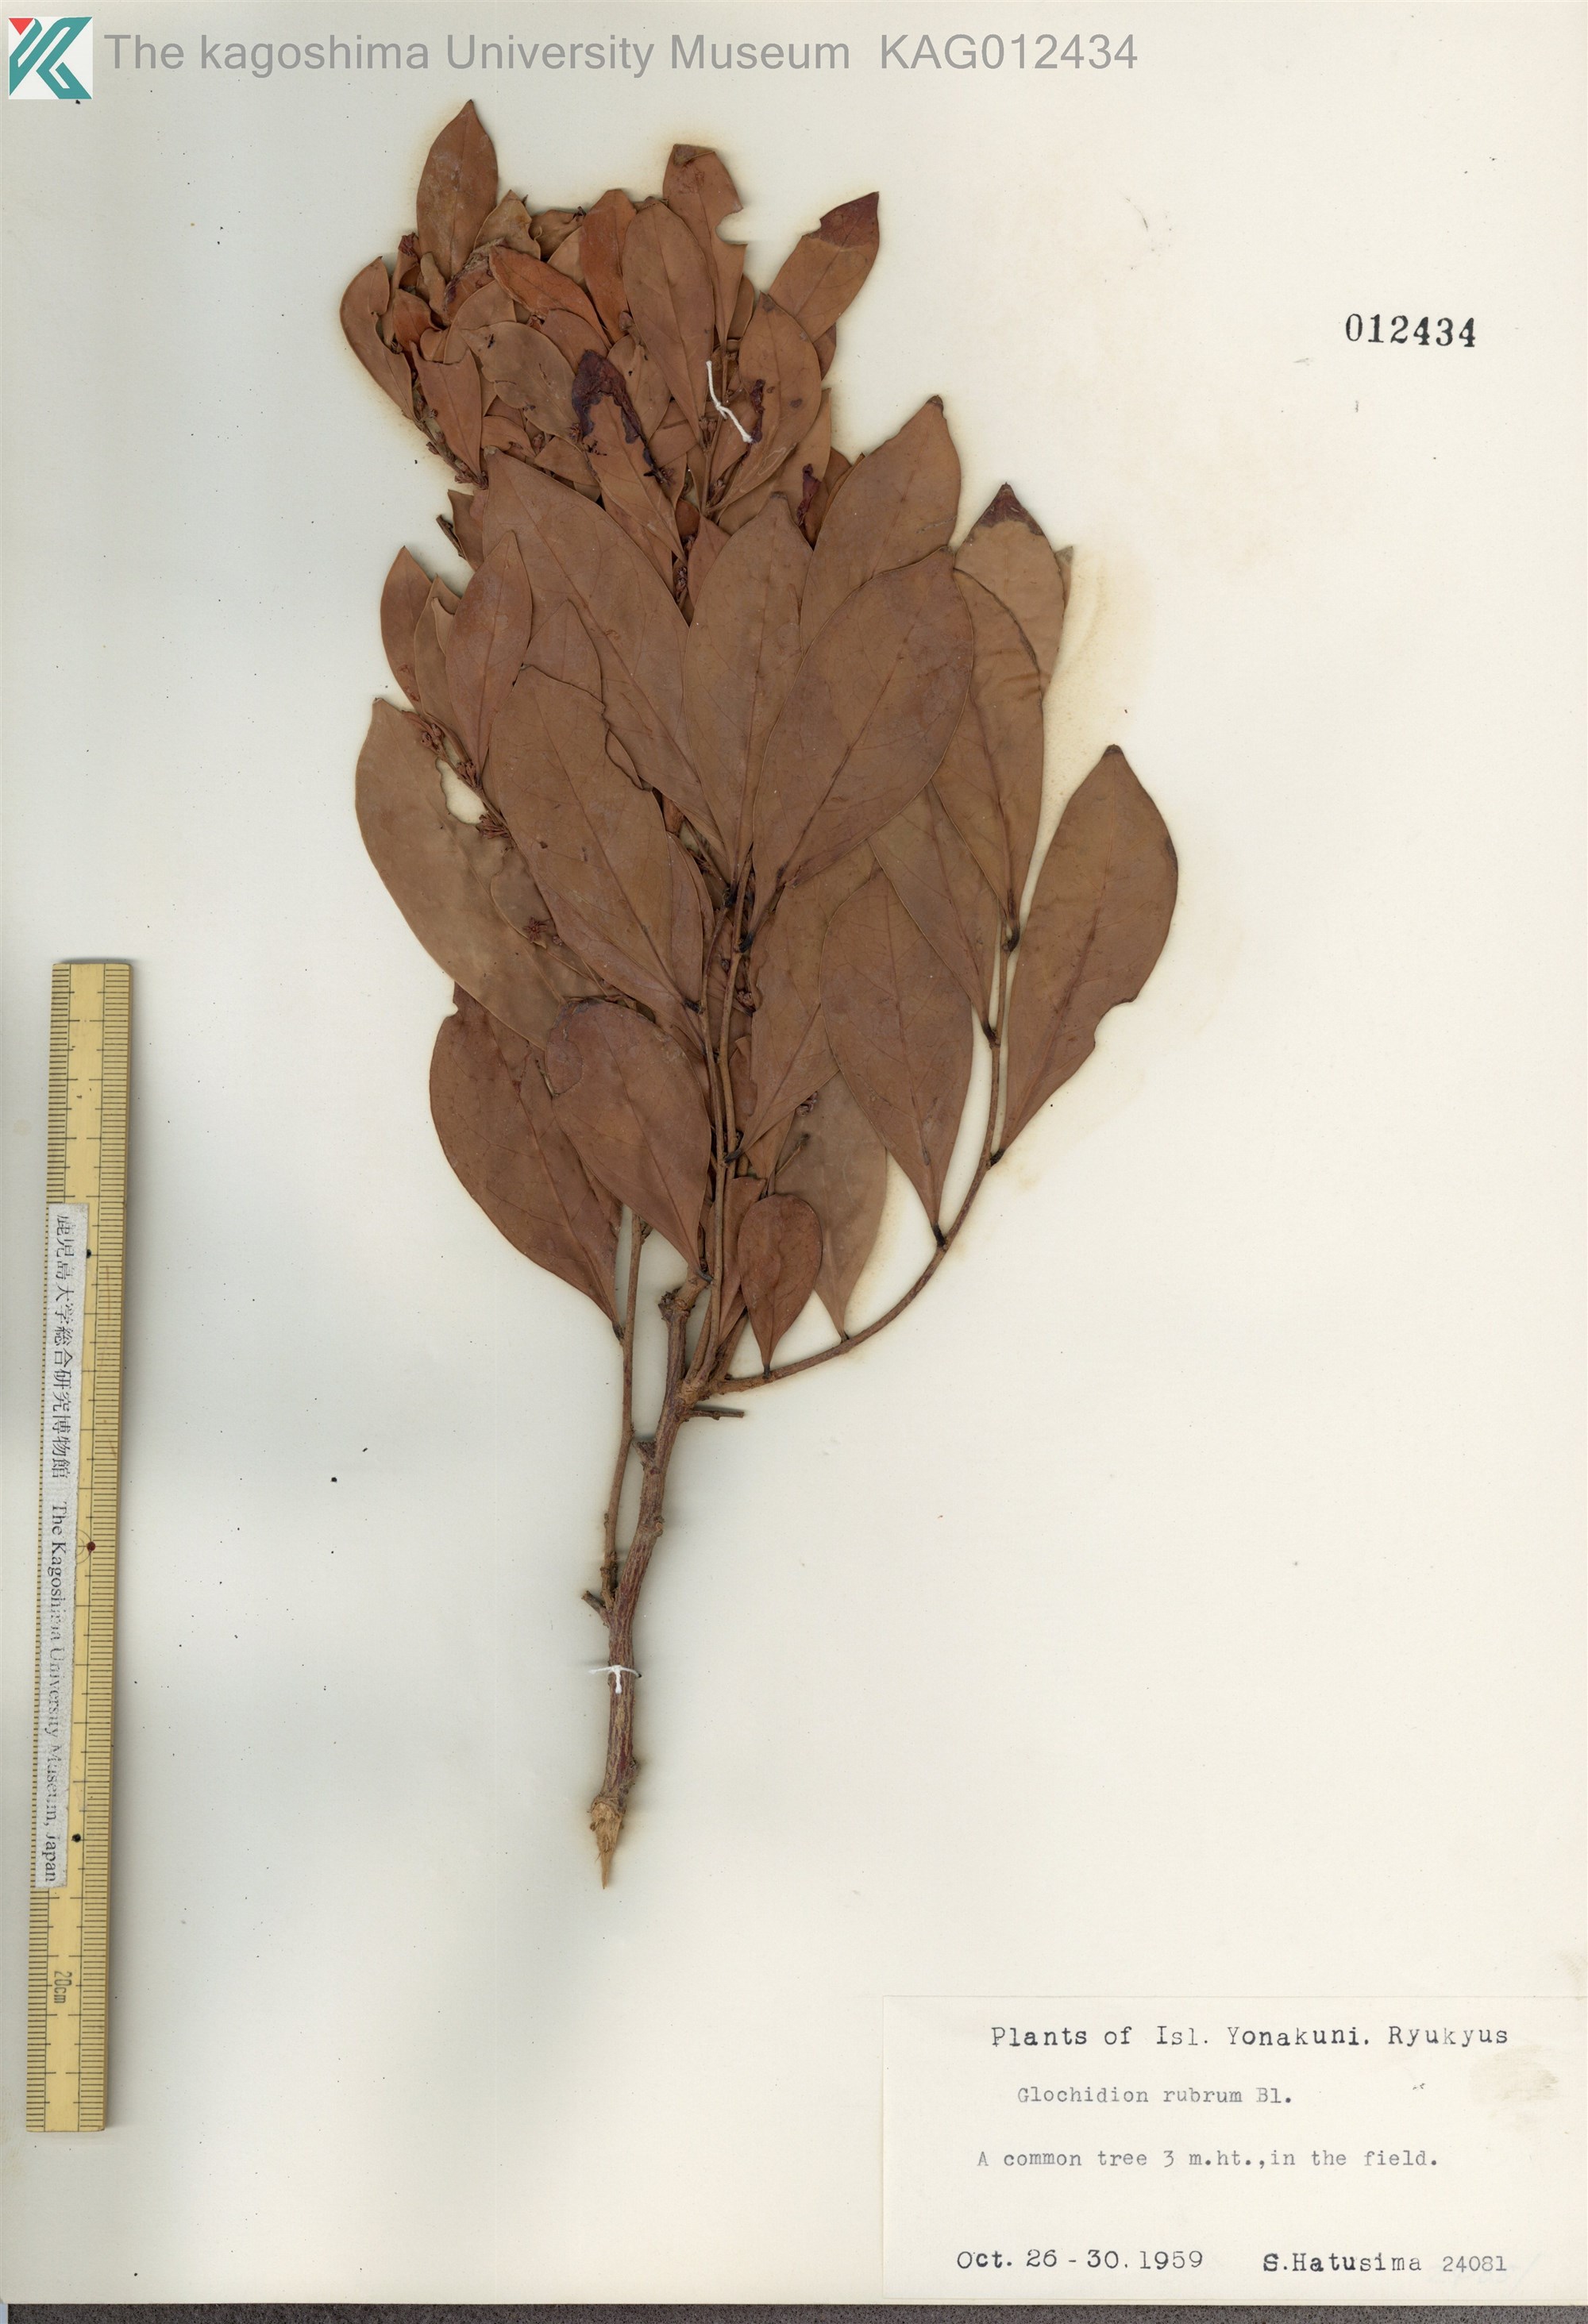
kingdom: Plantae
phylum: Tracheophyta
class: Magnoliopsida
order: Malpighiales
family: Phyllanthaceae
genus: Glochidion
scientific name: Glochidion rubrum
